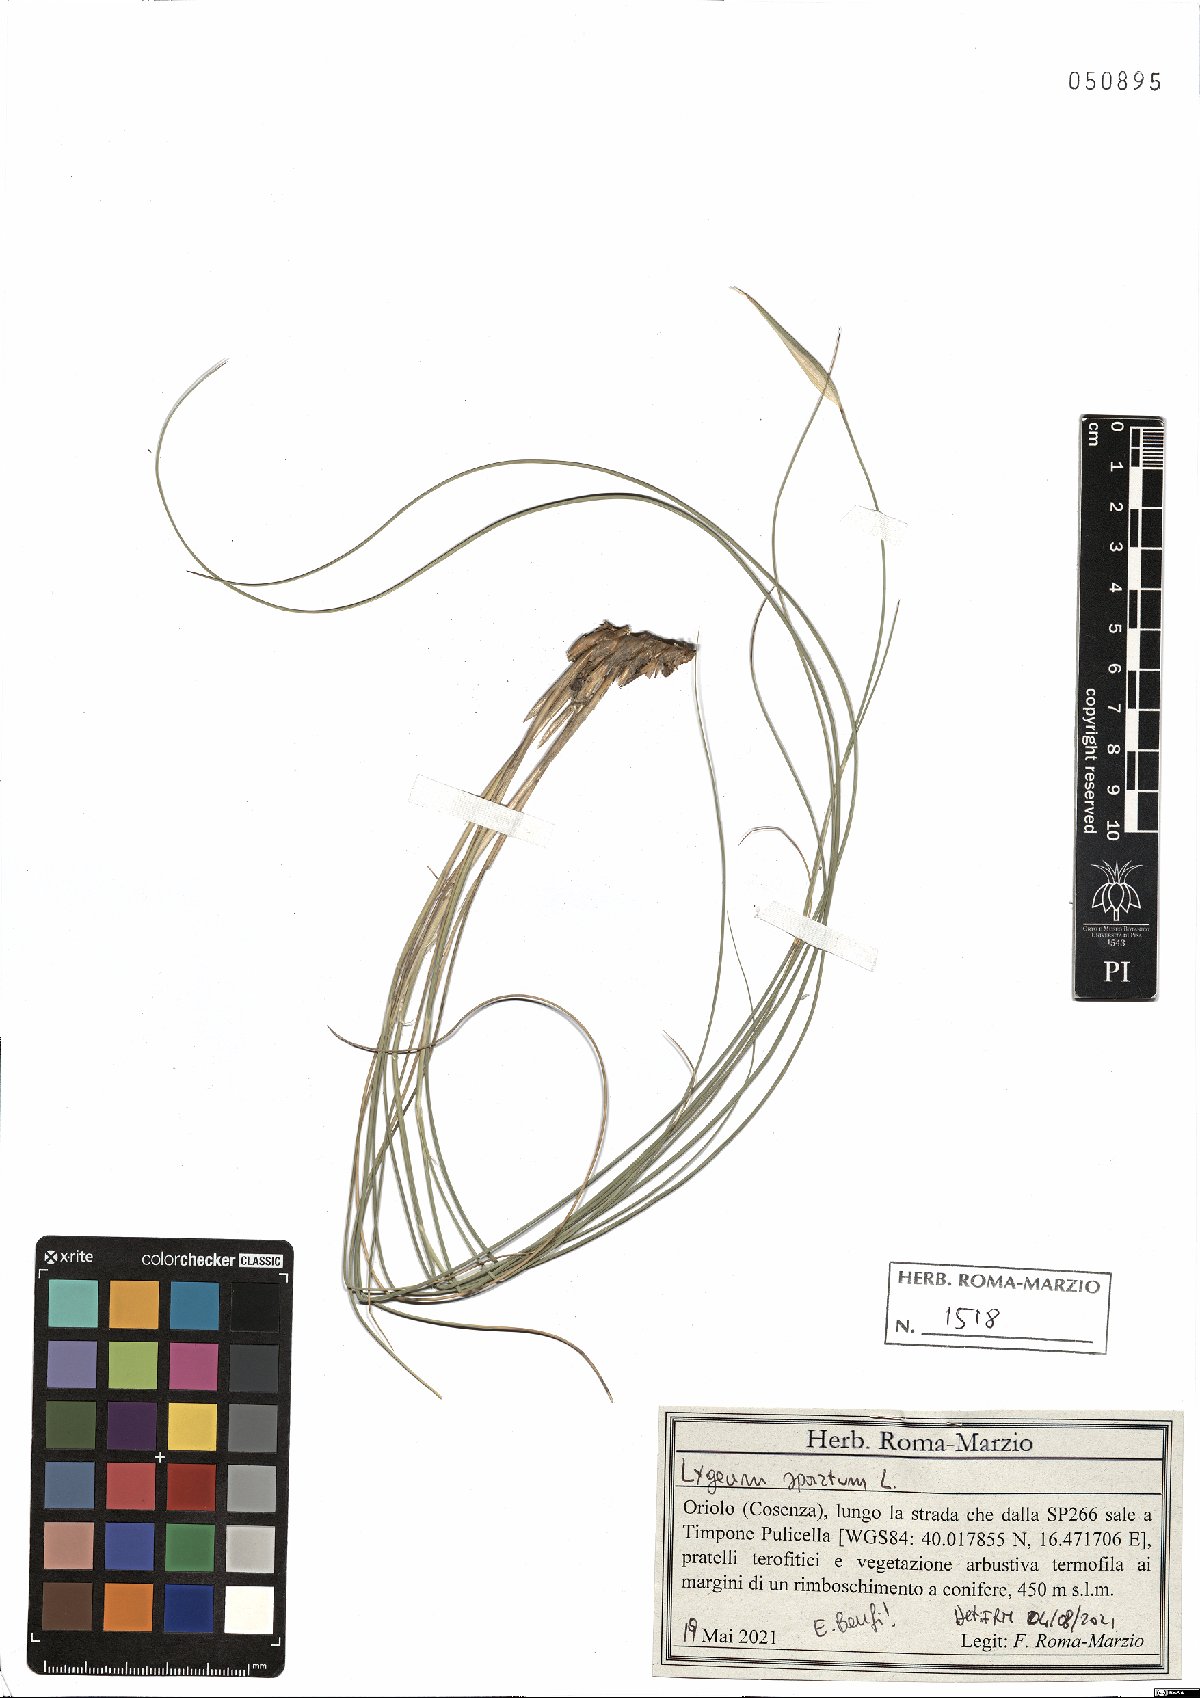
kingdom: Plantae
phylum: Tracheophyta
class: Liliopsida
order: Poales
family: Poaceae
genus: Lygeum
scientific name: Lygeum spartum
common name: Albardine
